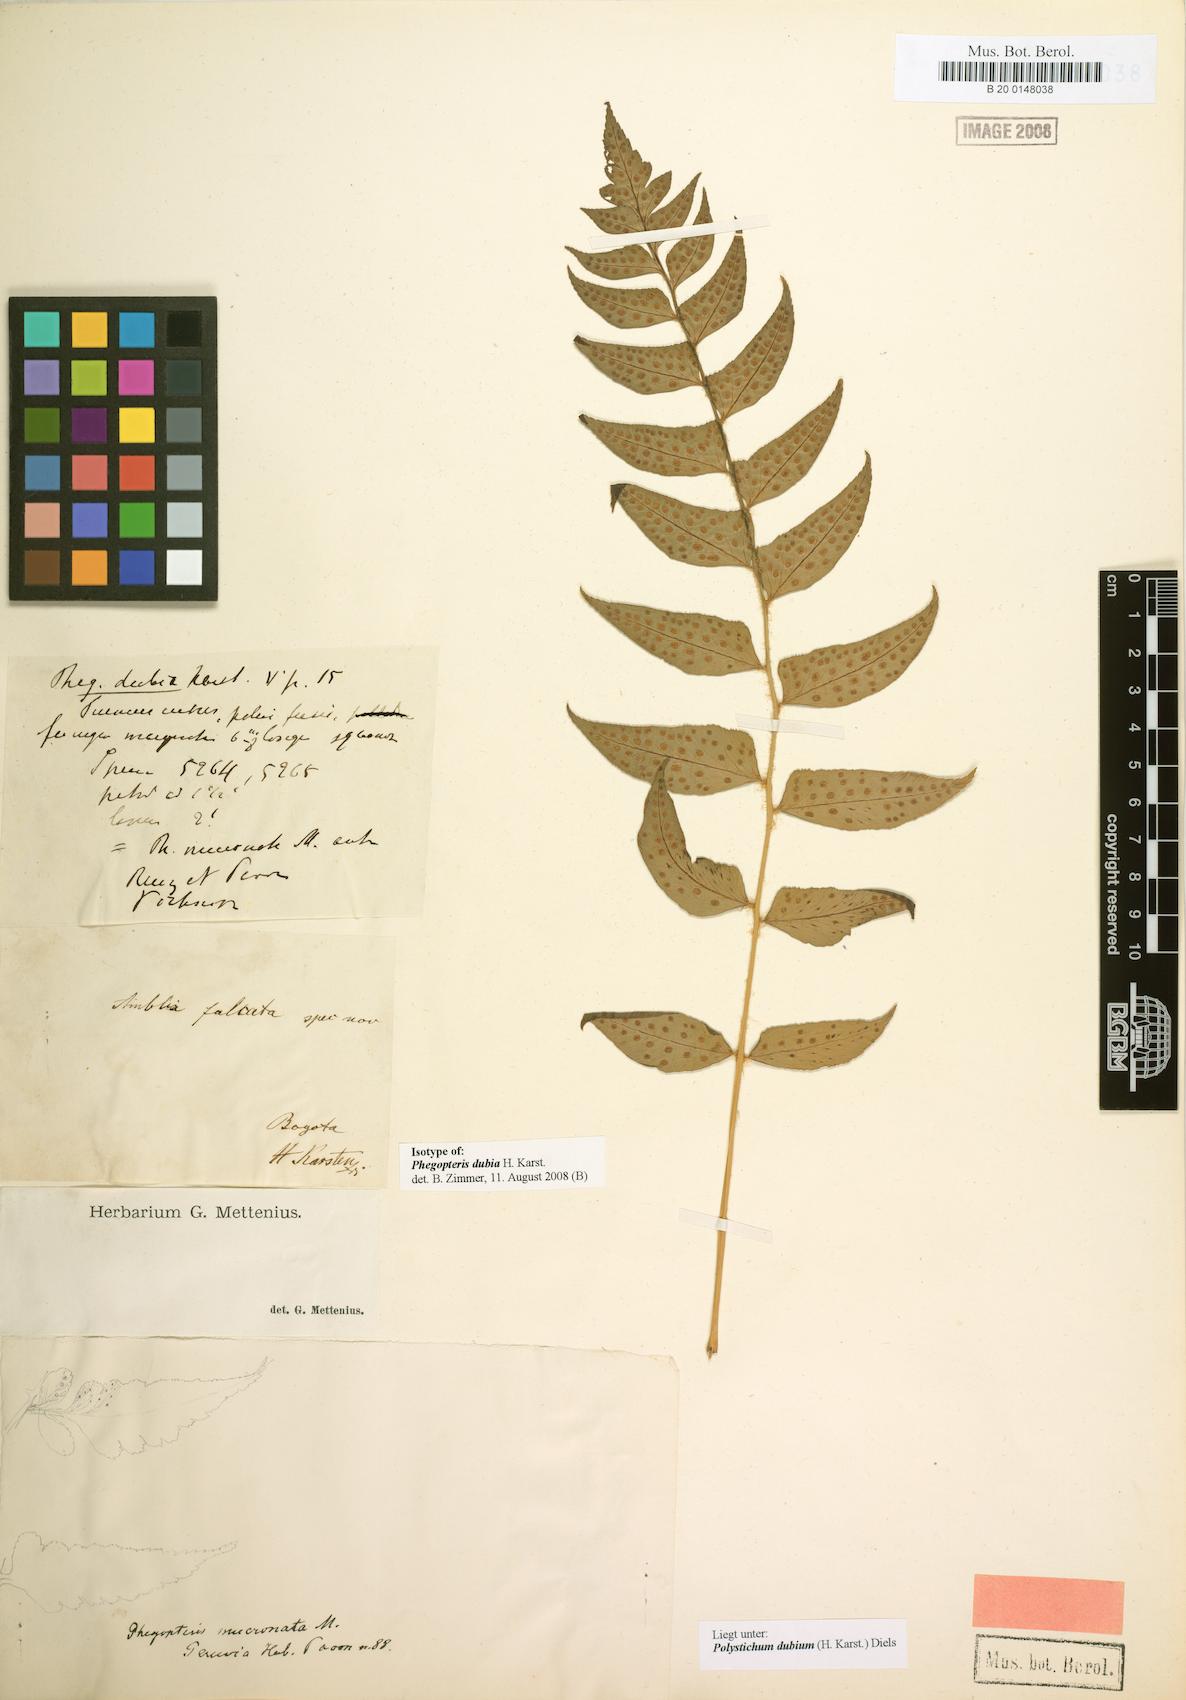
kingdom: Plantae
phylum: Tracheophyta
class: Polypodiopsida
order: Polypodiales
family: Dryopteridaceae
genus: Polystichum
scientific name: Polystichum dubium
